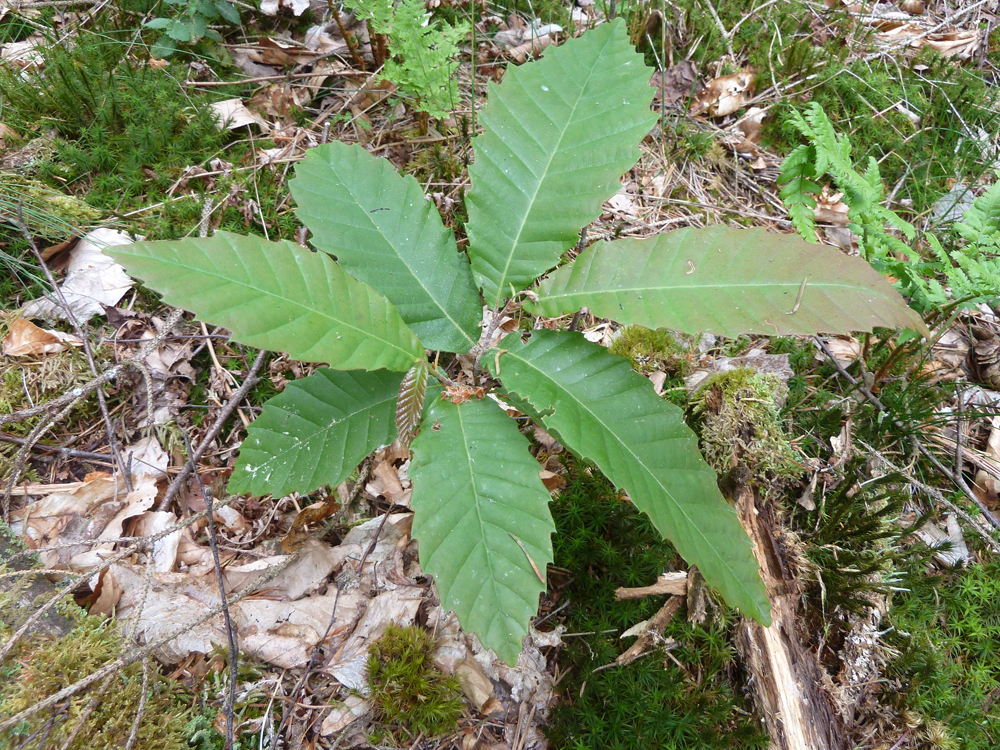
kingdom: Plantae
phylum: Tracheophyta
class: Magnoliopsida
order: Fagales
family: Fagaceae
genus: Castanea
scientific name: Castanea sativa
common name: Sweet chestnut
